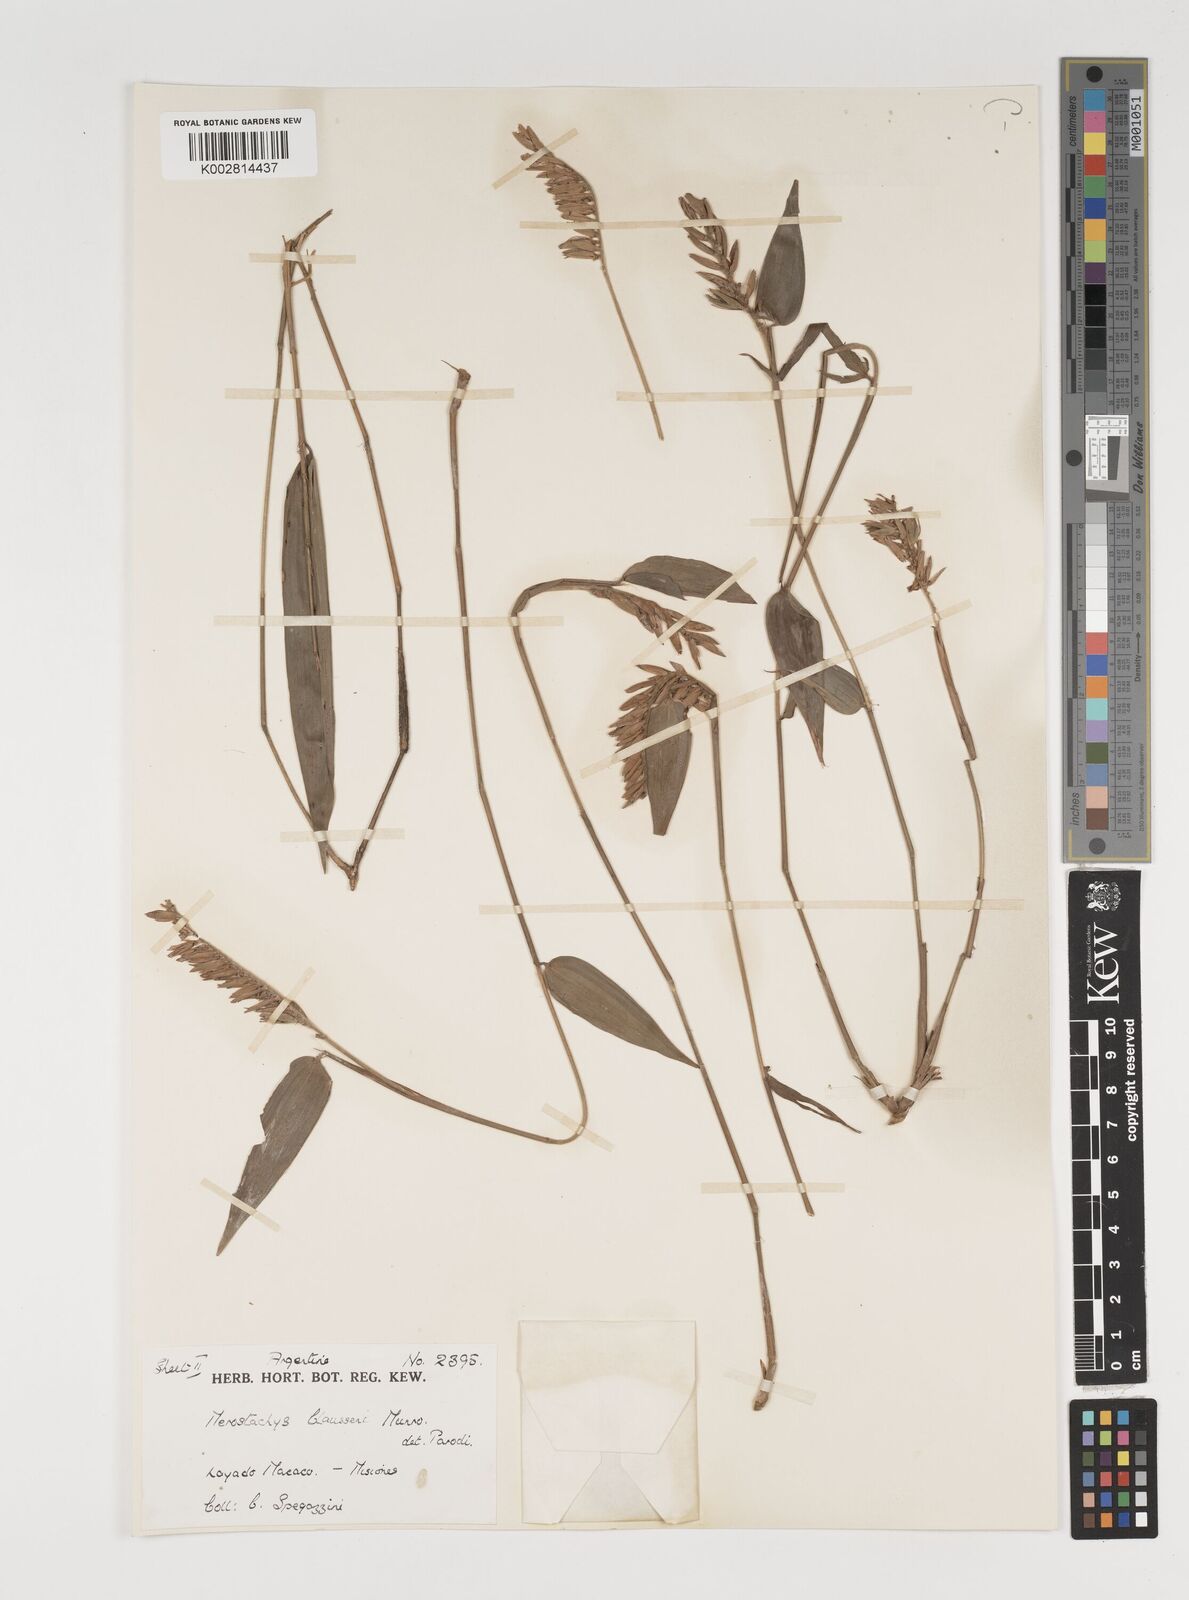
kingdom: Plantae
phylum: Tracheophyta
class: Liliopsida
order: Poales
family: Poaceae
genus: Merostachys
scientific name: Merostachys claussenii
